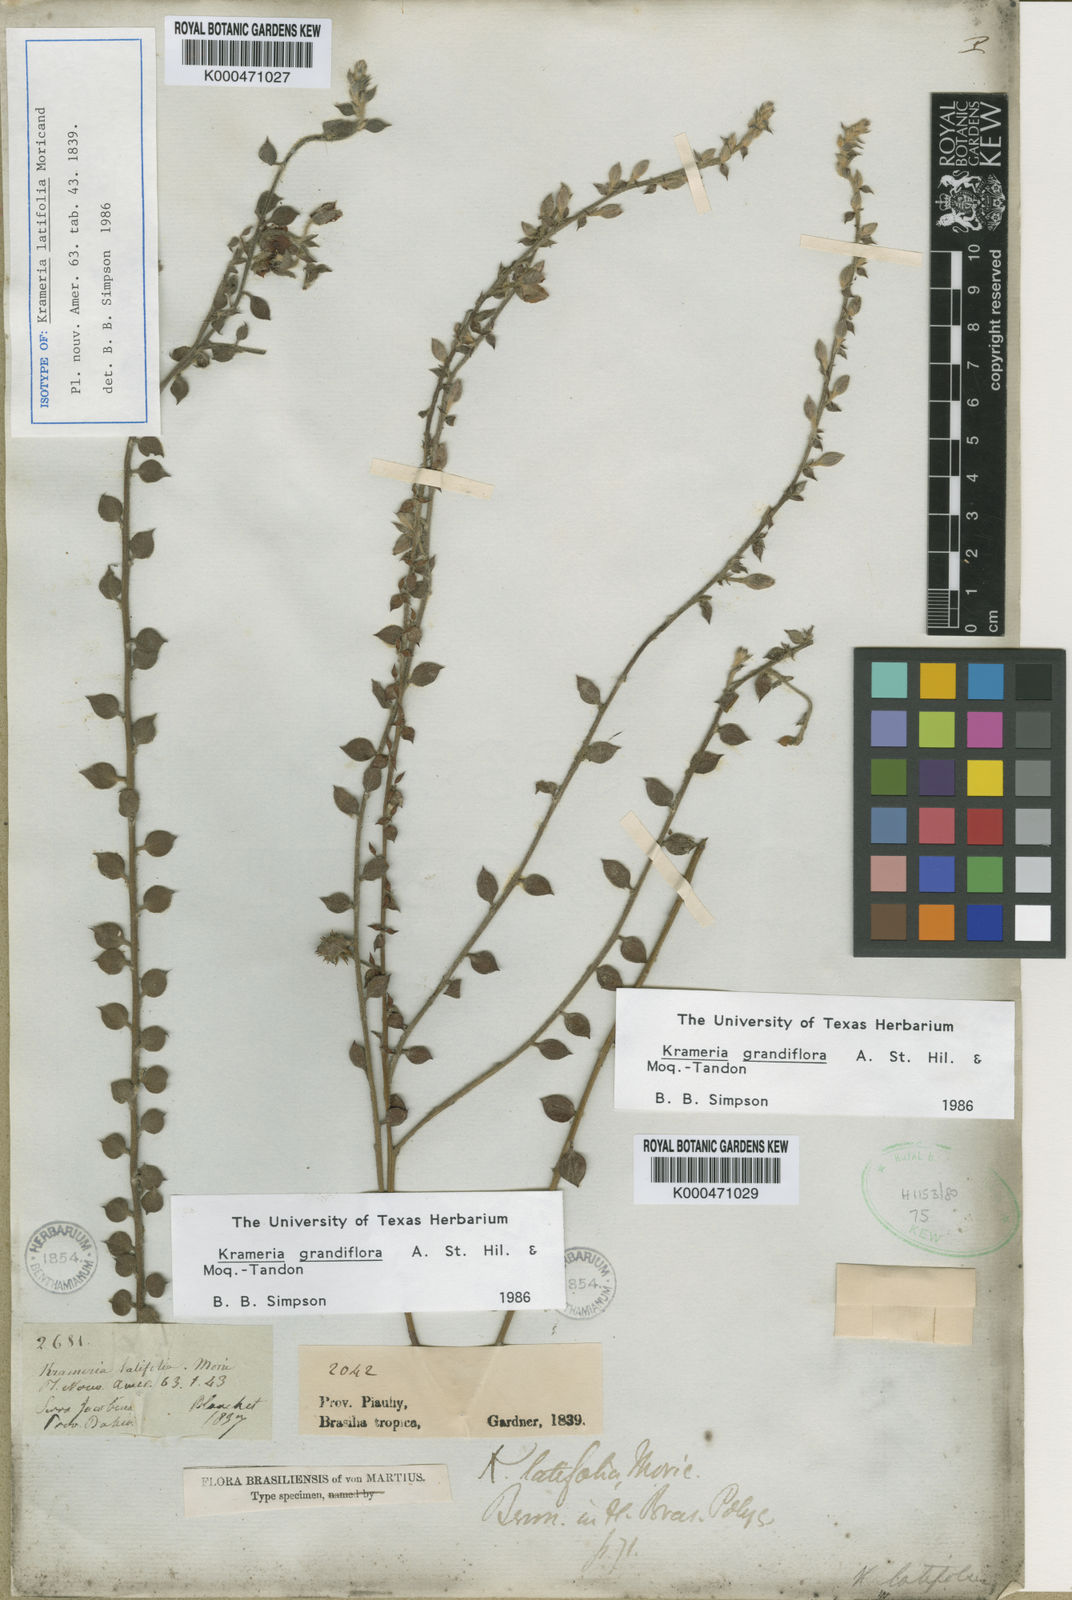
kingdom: Plantae
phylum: Tracheophyta
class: Magnoliopsida
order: Zygophyllales
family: Krameriaceae
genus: Krameria
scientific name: Krameria grandiflora
